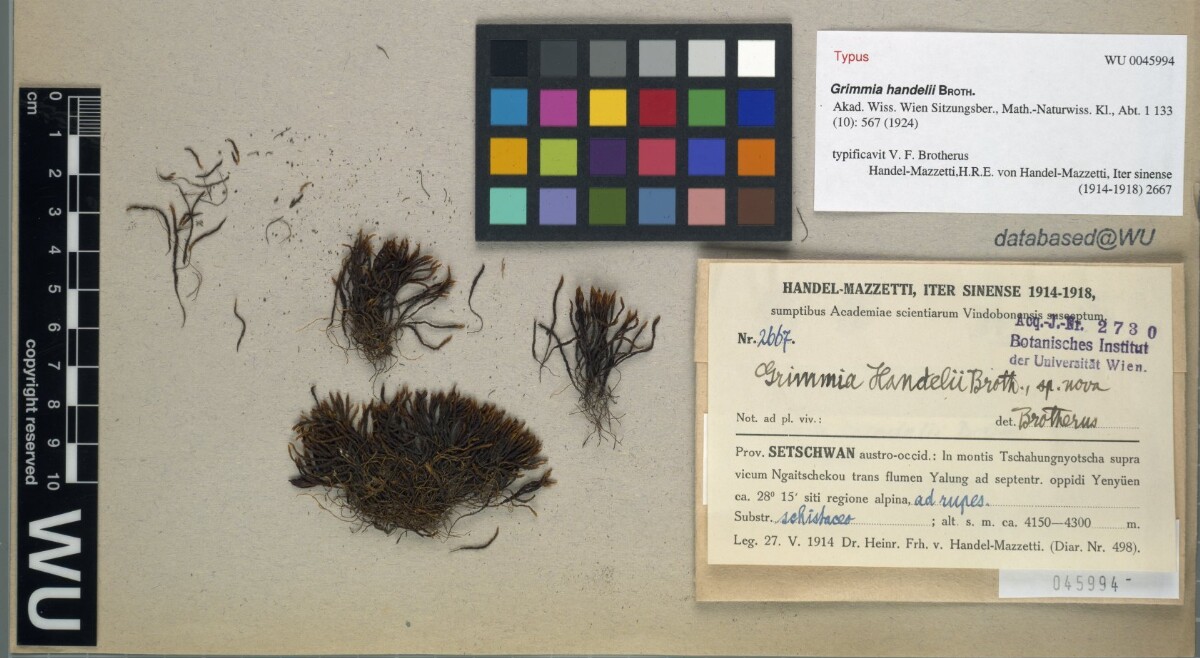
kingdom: Plantae
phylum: Bryophyta
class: Bryopsida
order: Grimmiales
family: Grimmiaceae
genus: Grimmia
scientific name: Grimmia handelii
